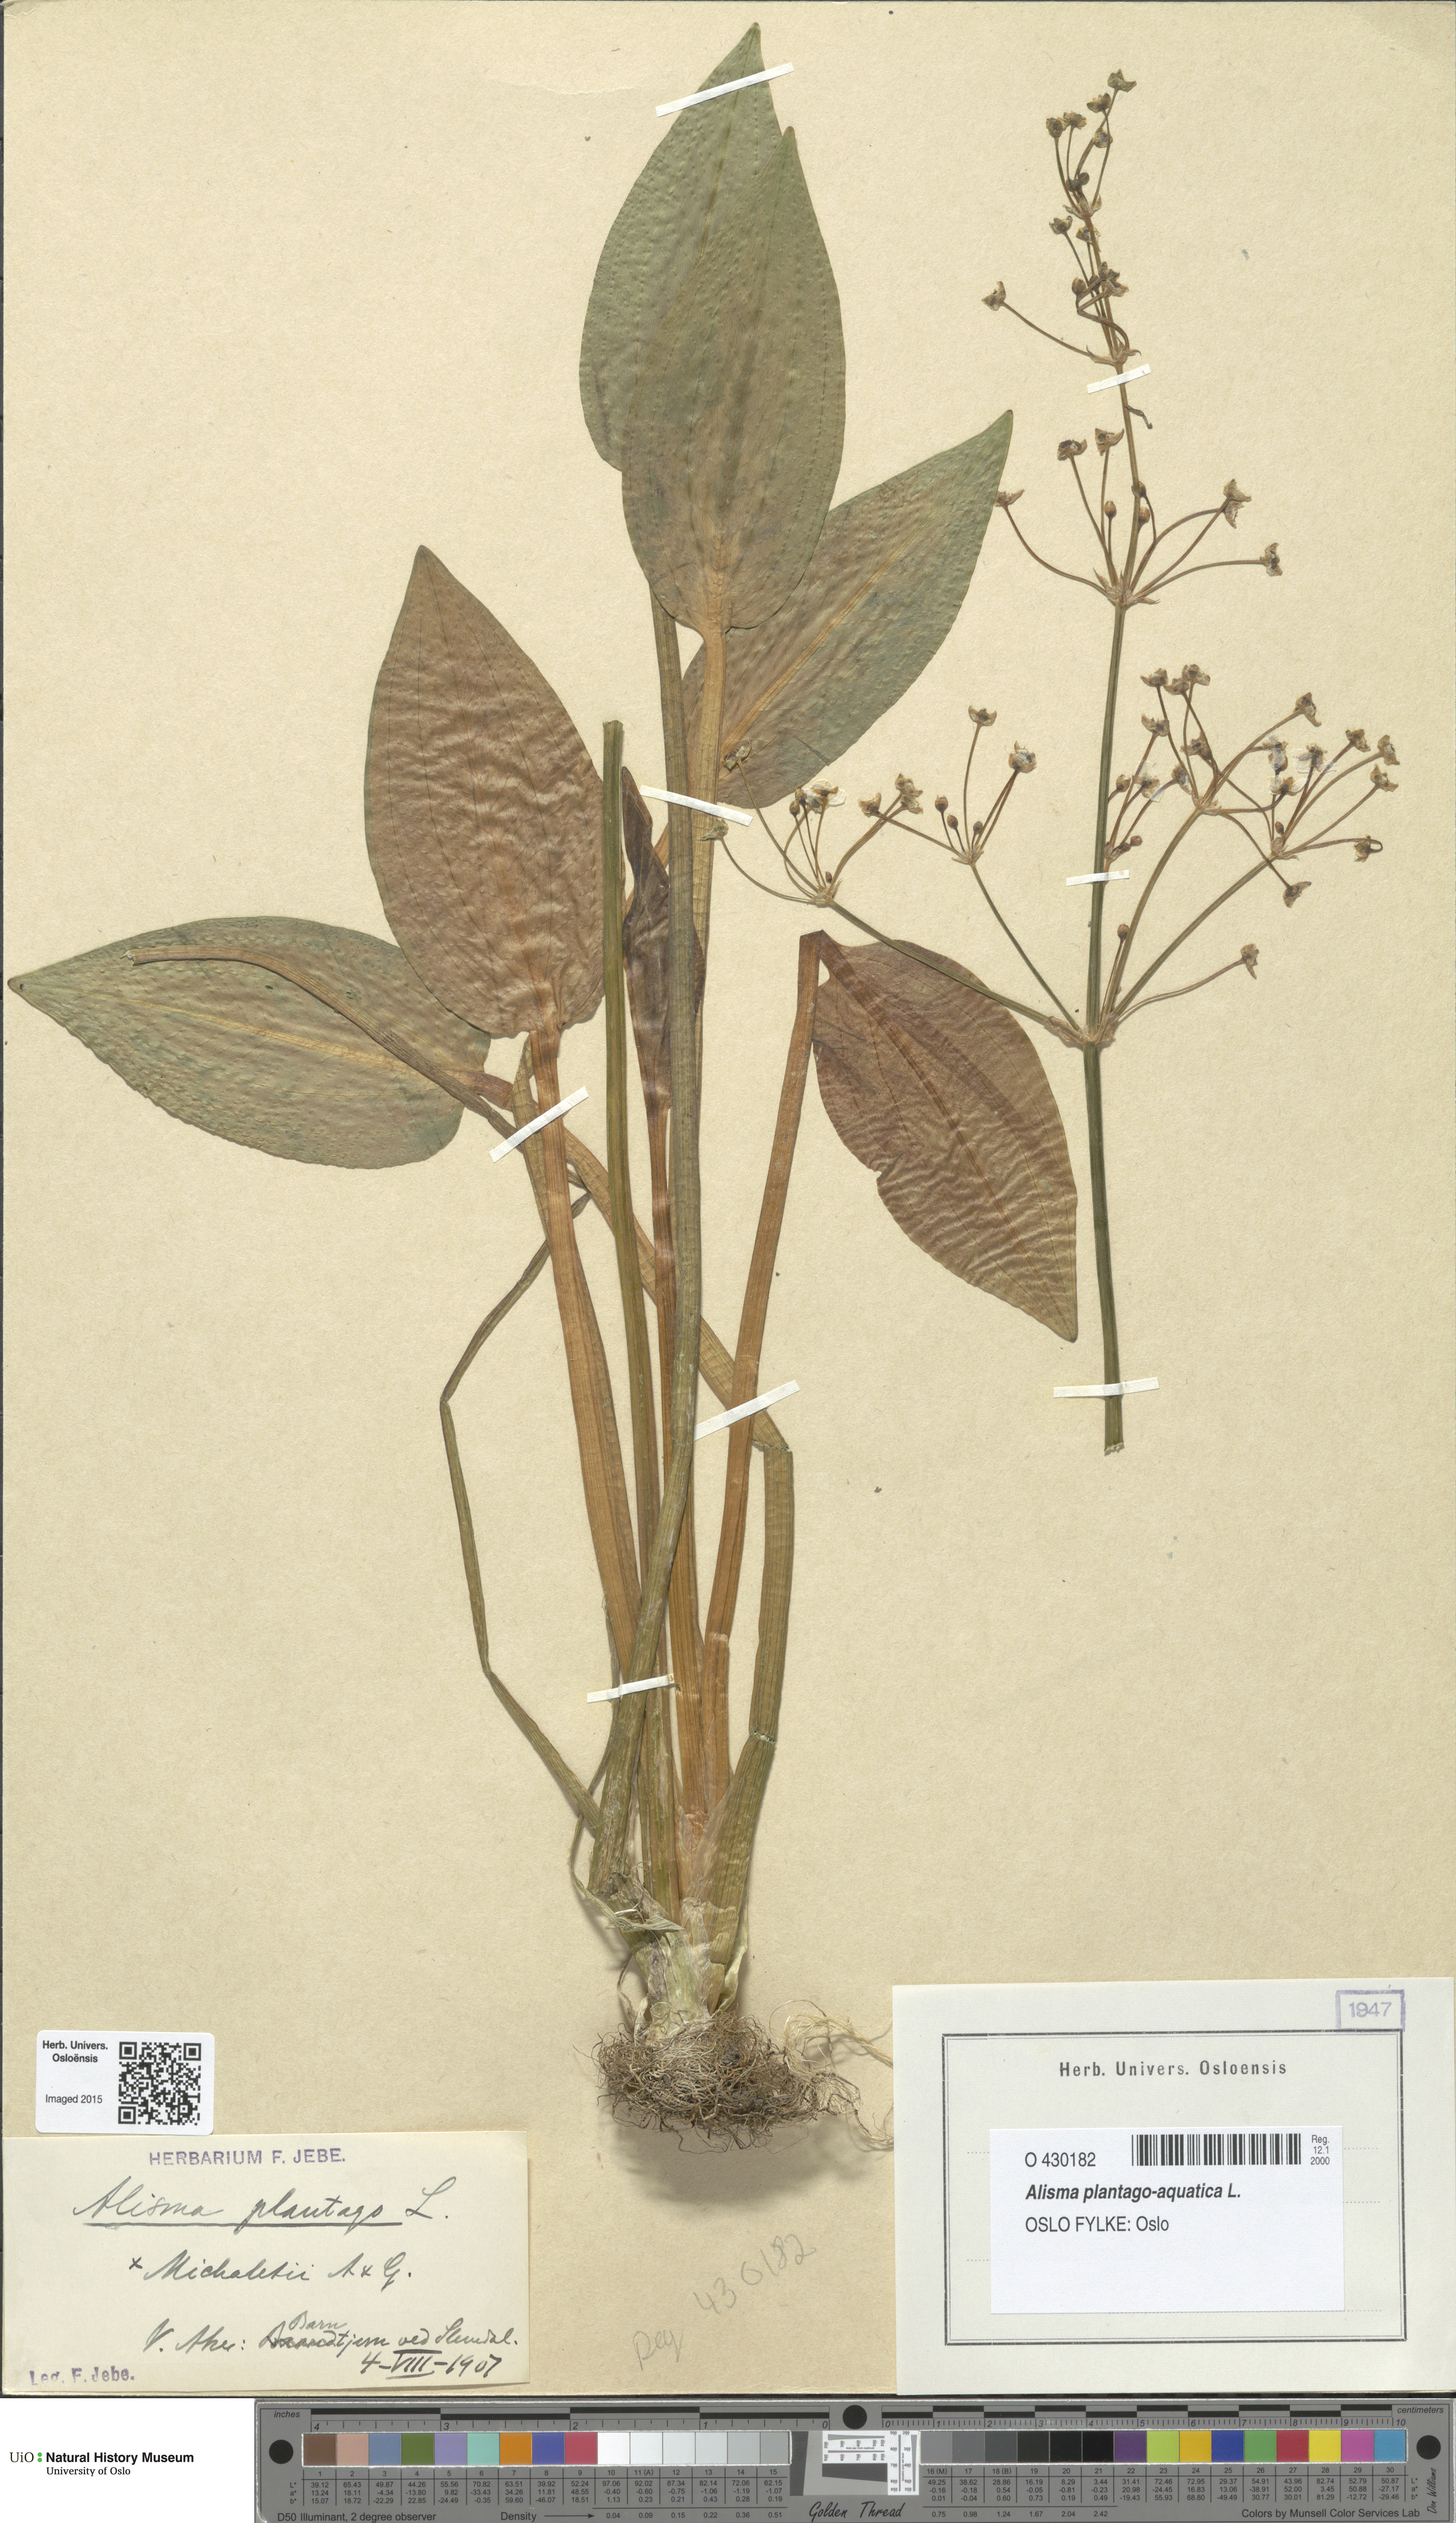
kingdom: Plantae
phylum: Tracheophyta
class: Liliopsida
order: Alismatales
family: Alismataceae
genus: Alisma
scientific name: Alisma plantago-aquatica
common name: Water-plantain
